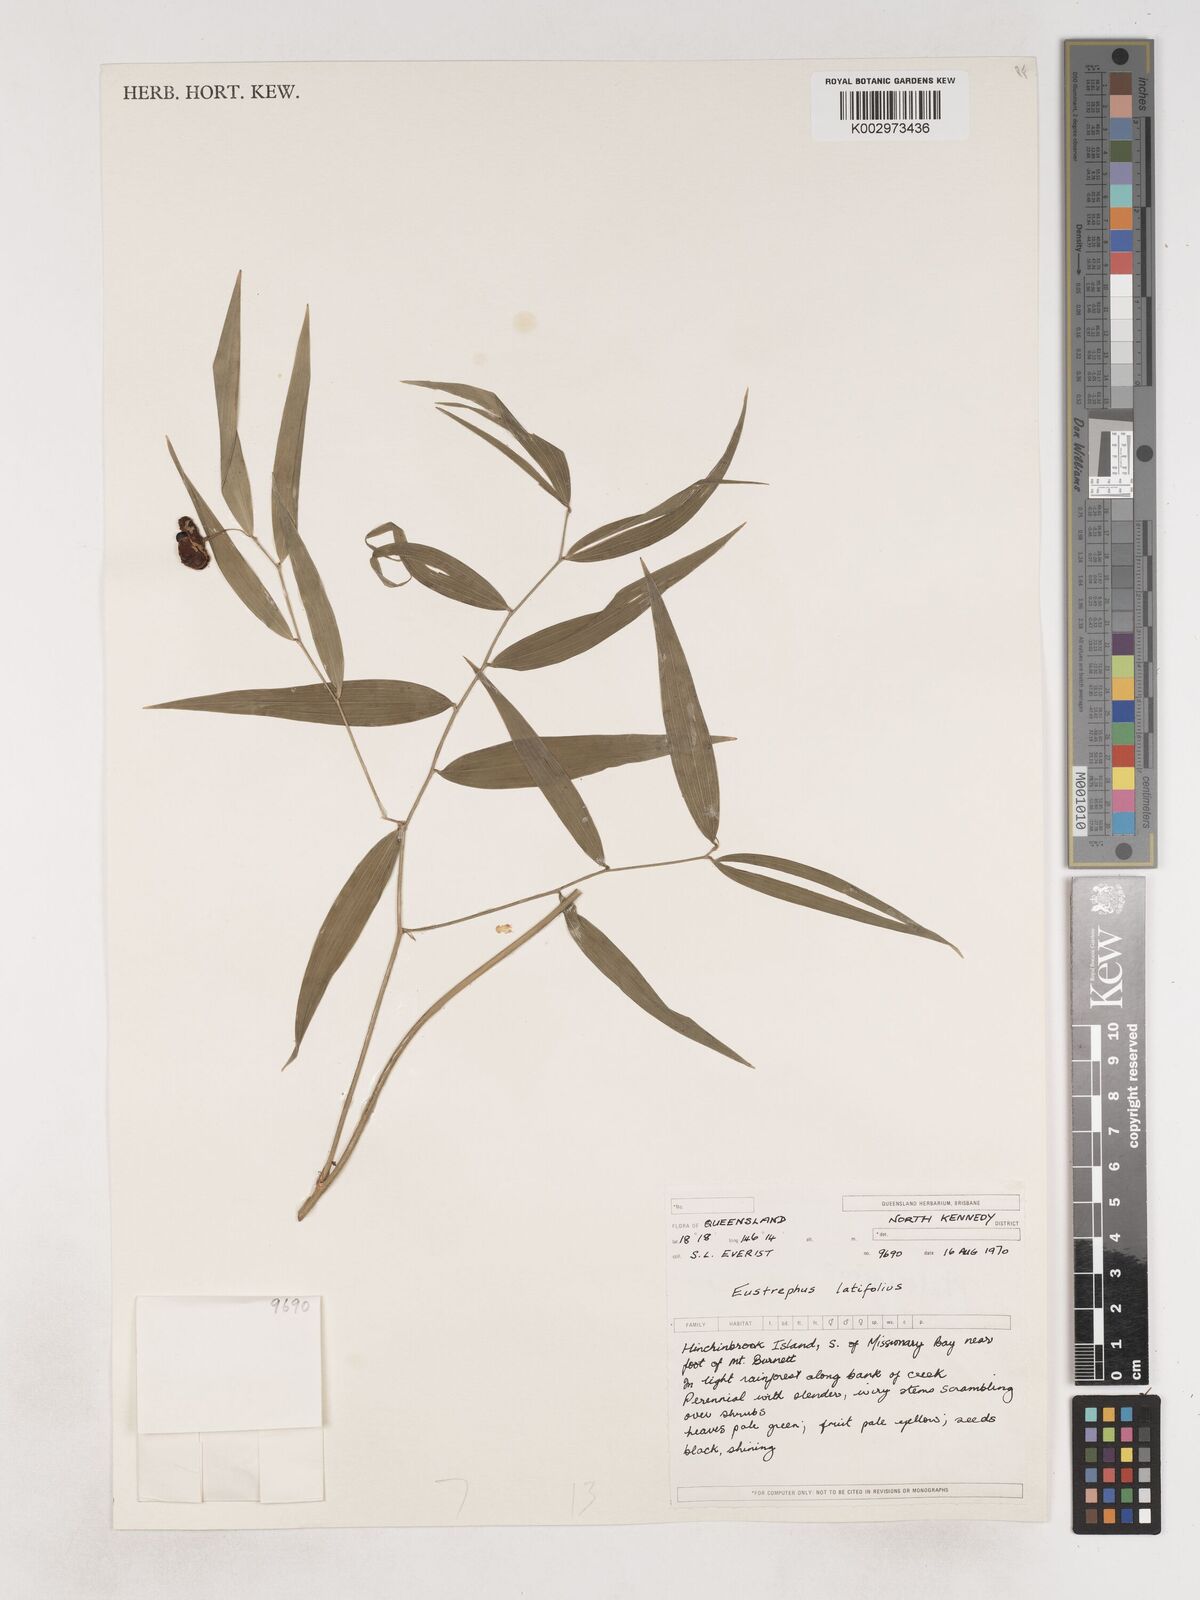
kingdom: Plantae
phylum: Tracheophyta
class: Liliopsida
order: Asparagales
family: Asparagaceae
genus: Eustrephus
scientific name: Eustrephus latifolius
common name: Orangevine
